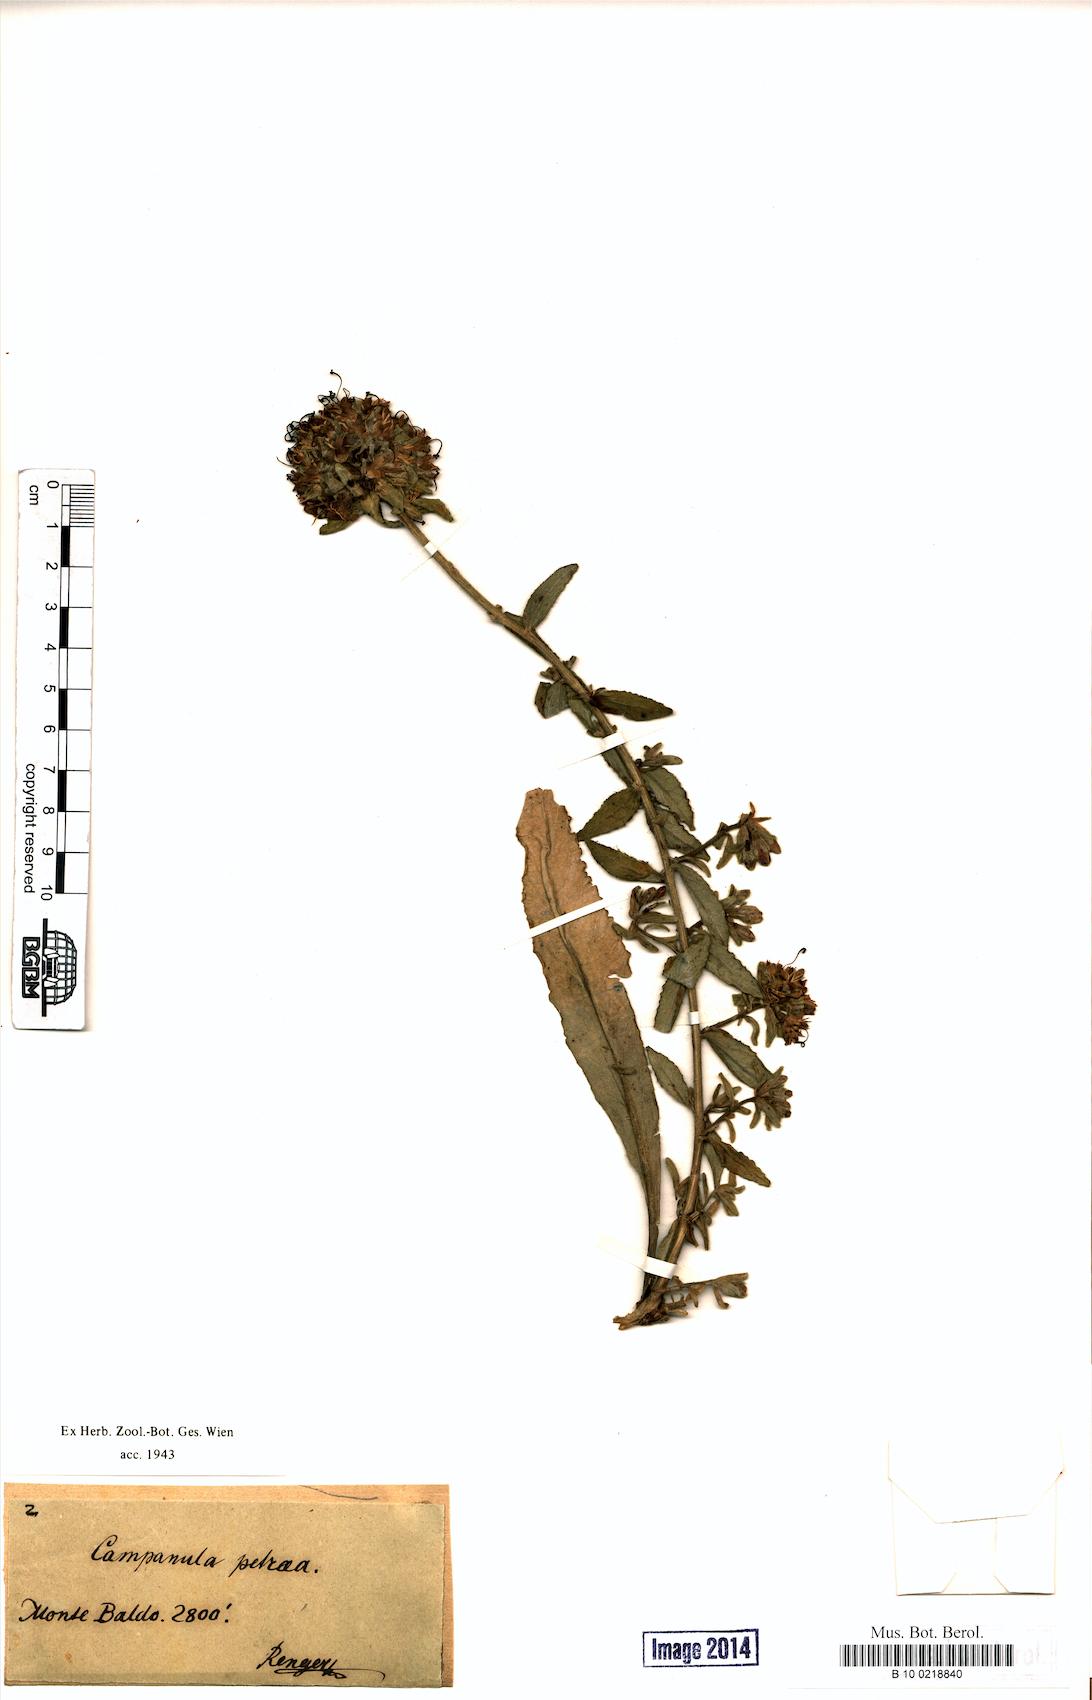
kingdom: Plantae
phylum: Tracheophyta
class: Magnoliopsida
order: Asterales
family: Campanulaceae
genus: Campanula
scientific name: Campanula petraea
